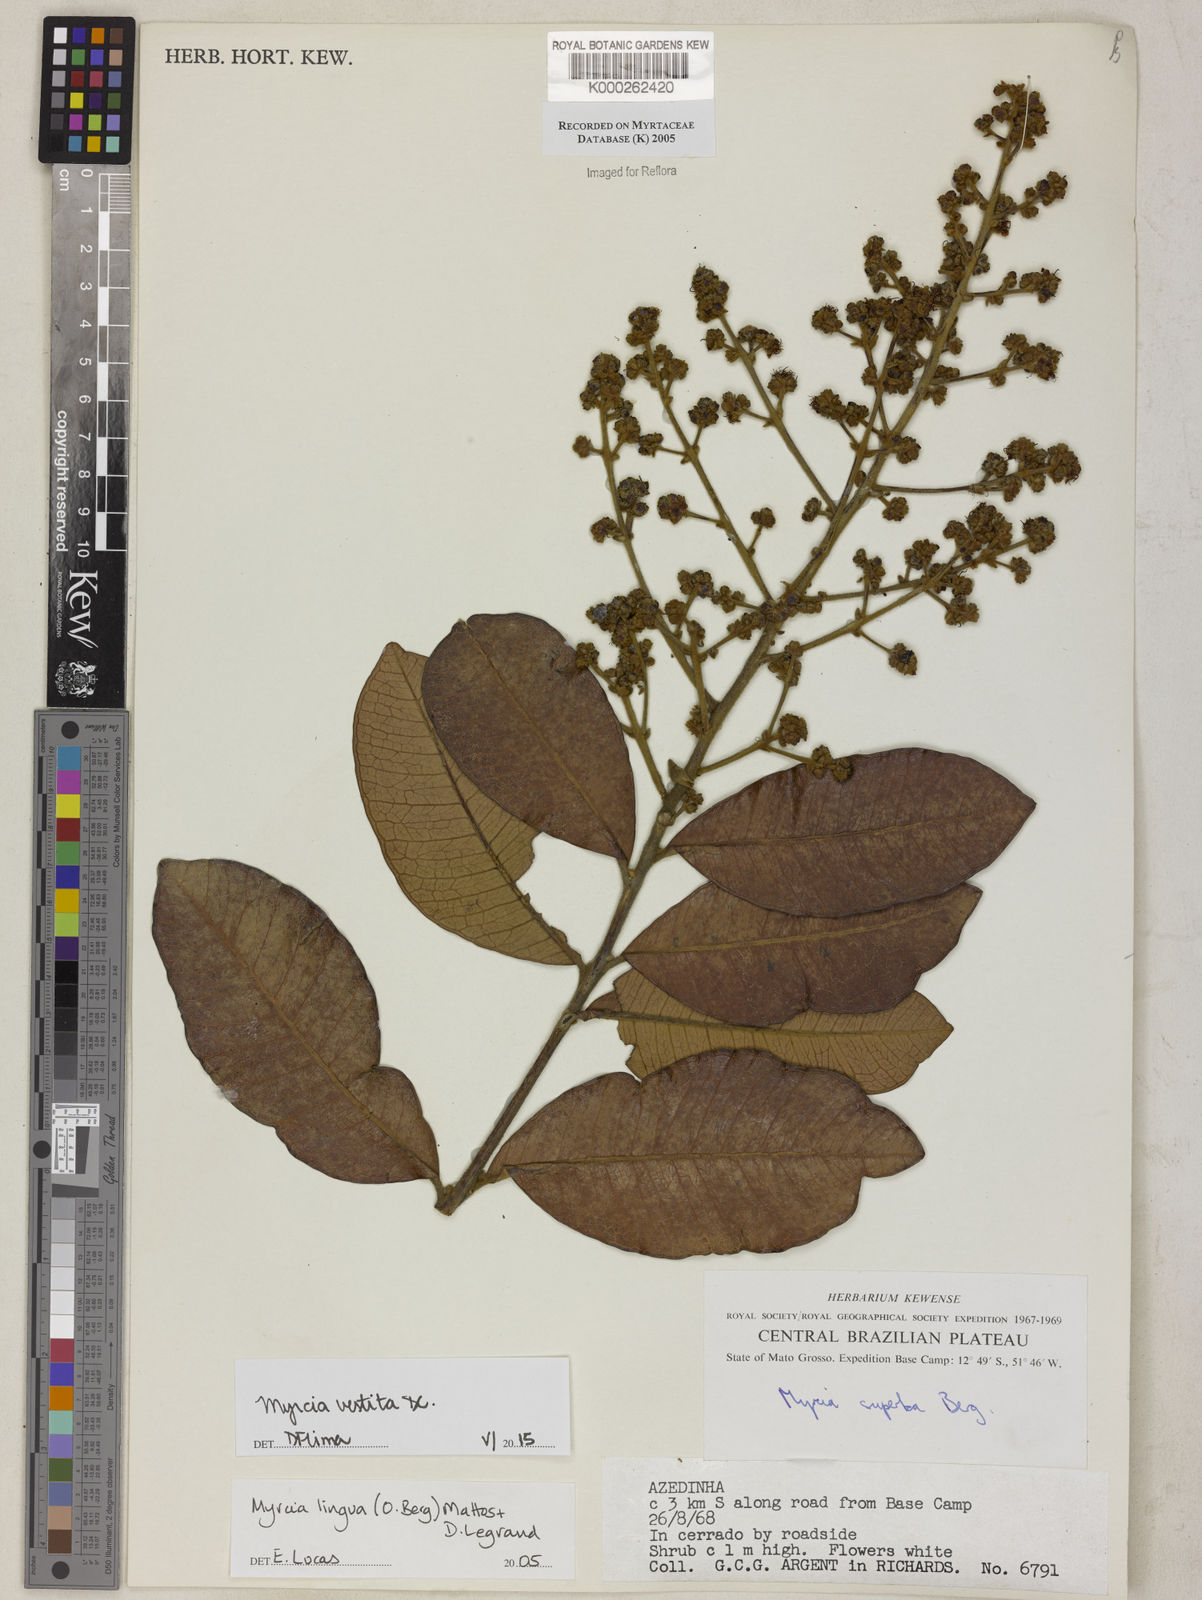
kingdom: Plantae
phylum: Tracheophyta
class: Magnoliopsida
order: Myrtales
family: Myrtaceae
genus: Myrcia
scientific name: Myrcia guianensis
